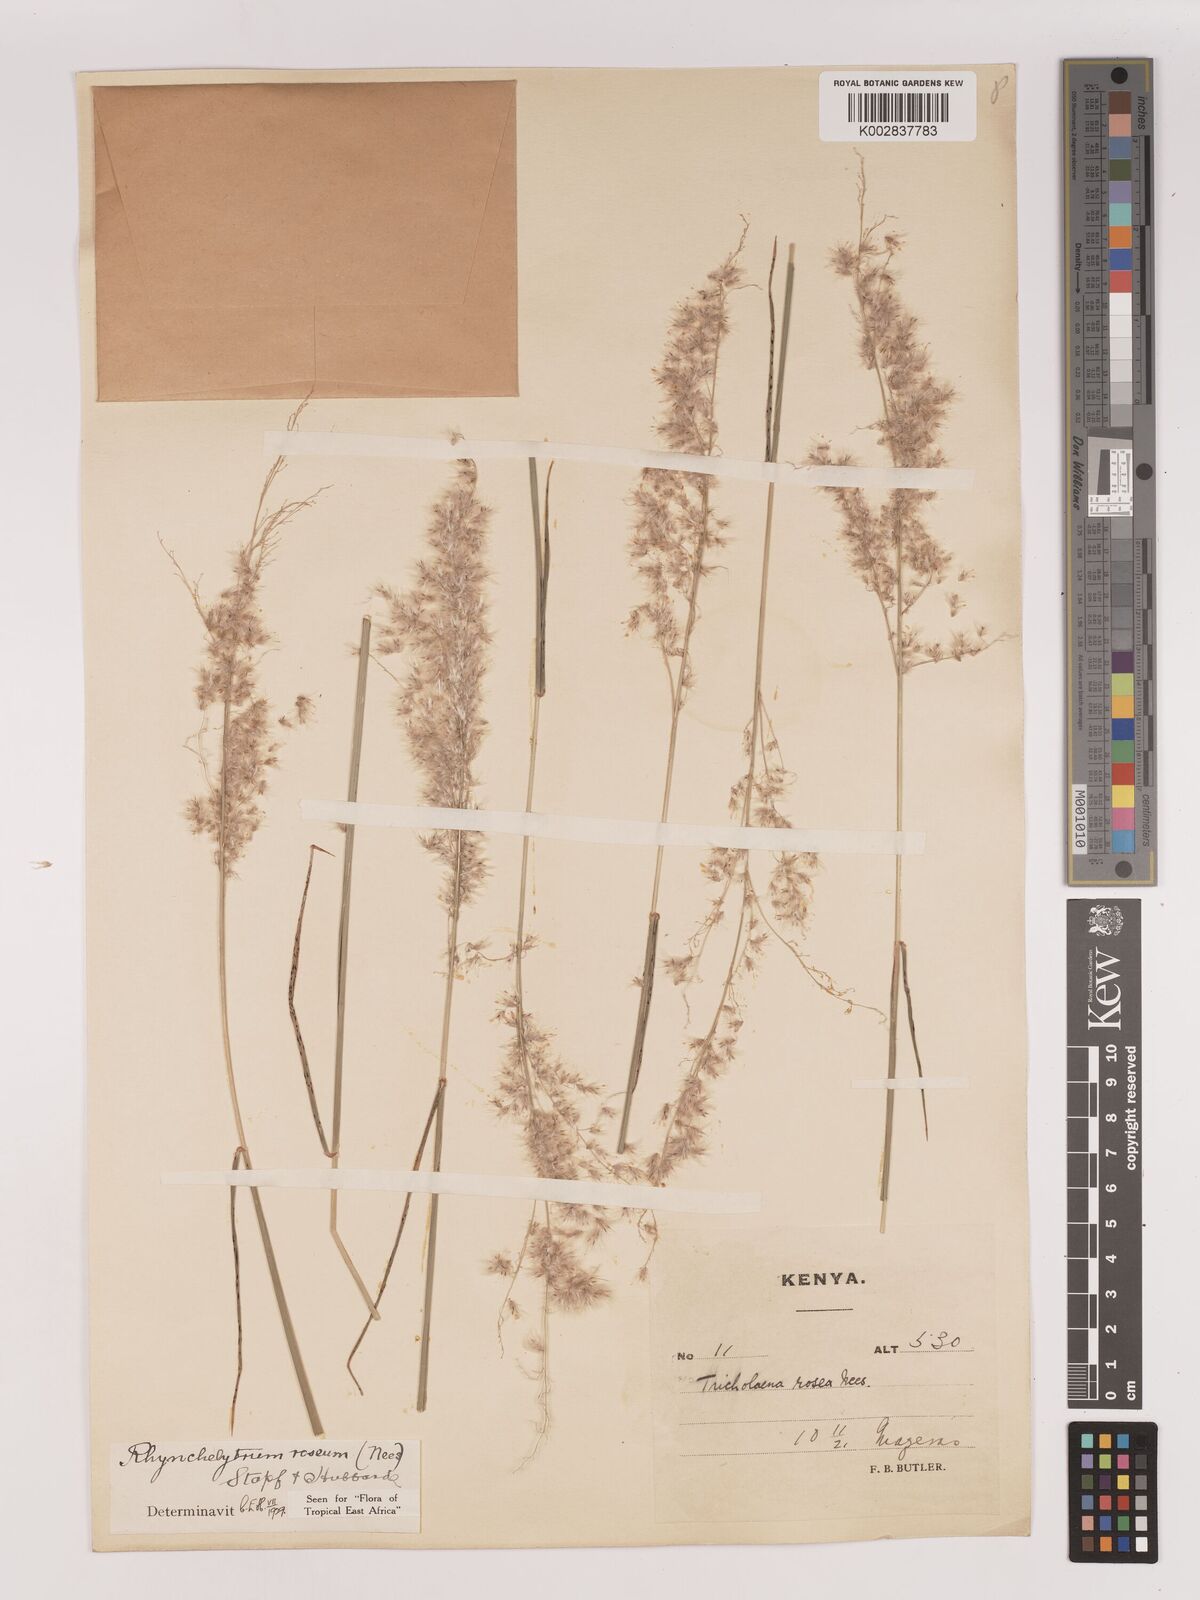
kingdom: Plantae
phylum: Tracheophyta
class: Liliopsida
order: Poales
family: Poaceae
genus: Melinis
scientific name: Melinis repens
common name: Rose natal grass
